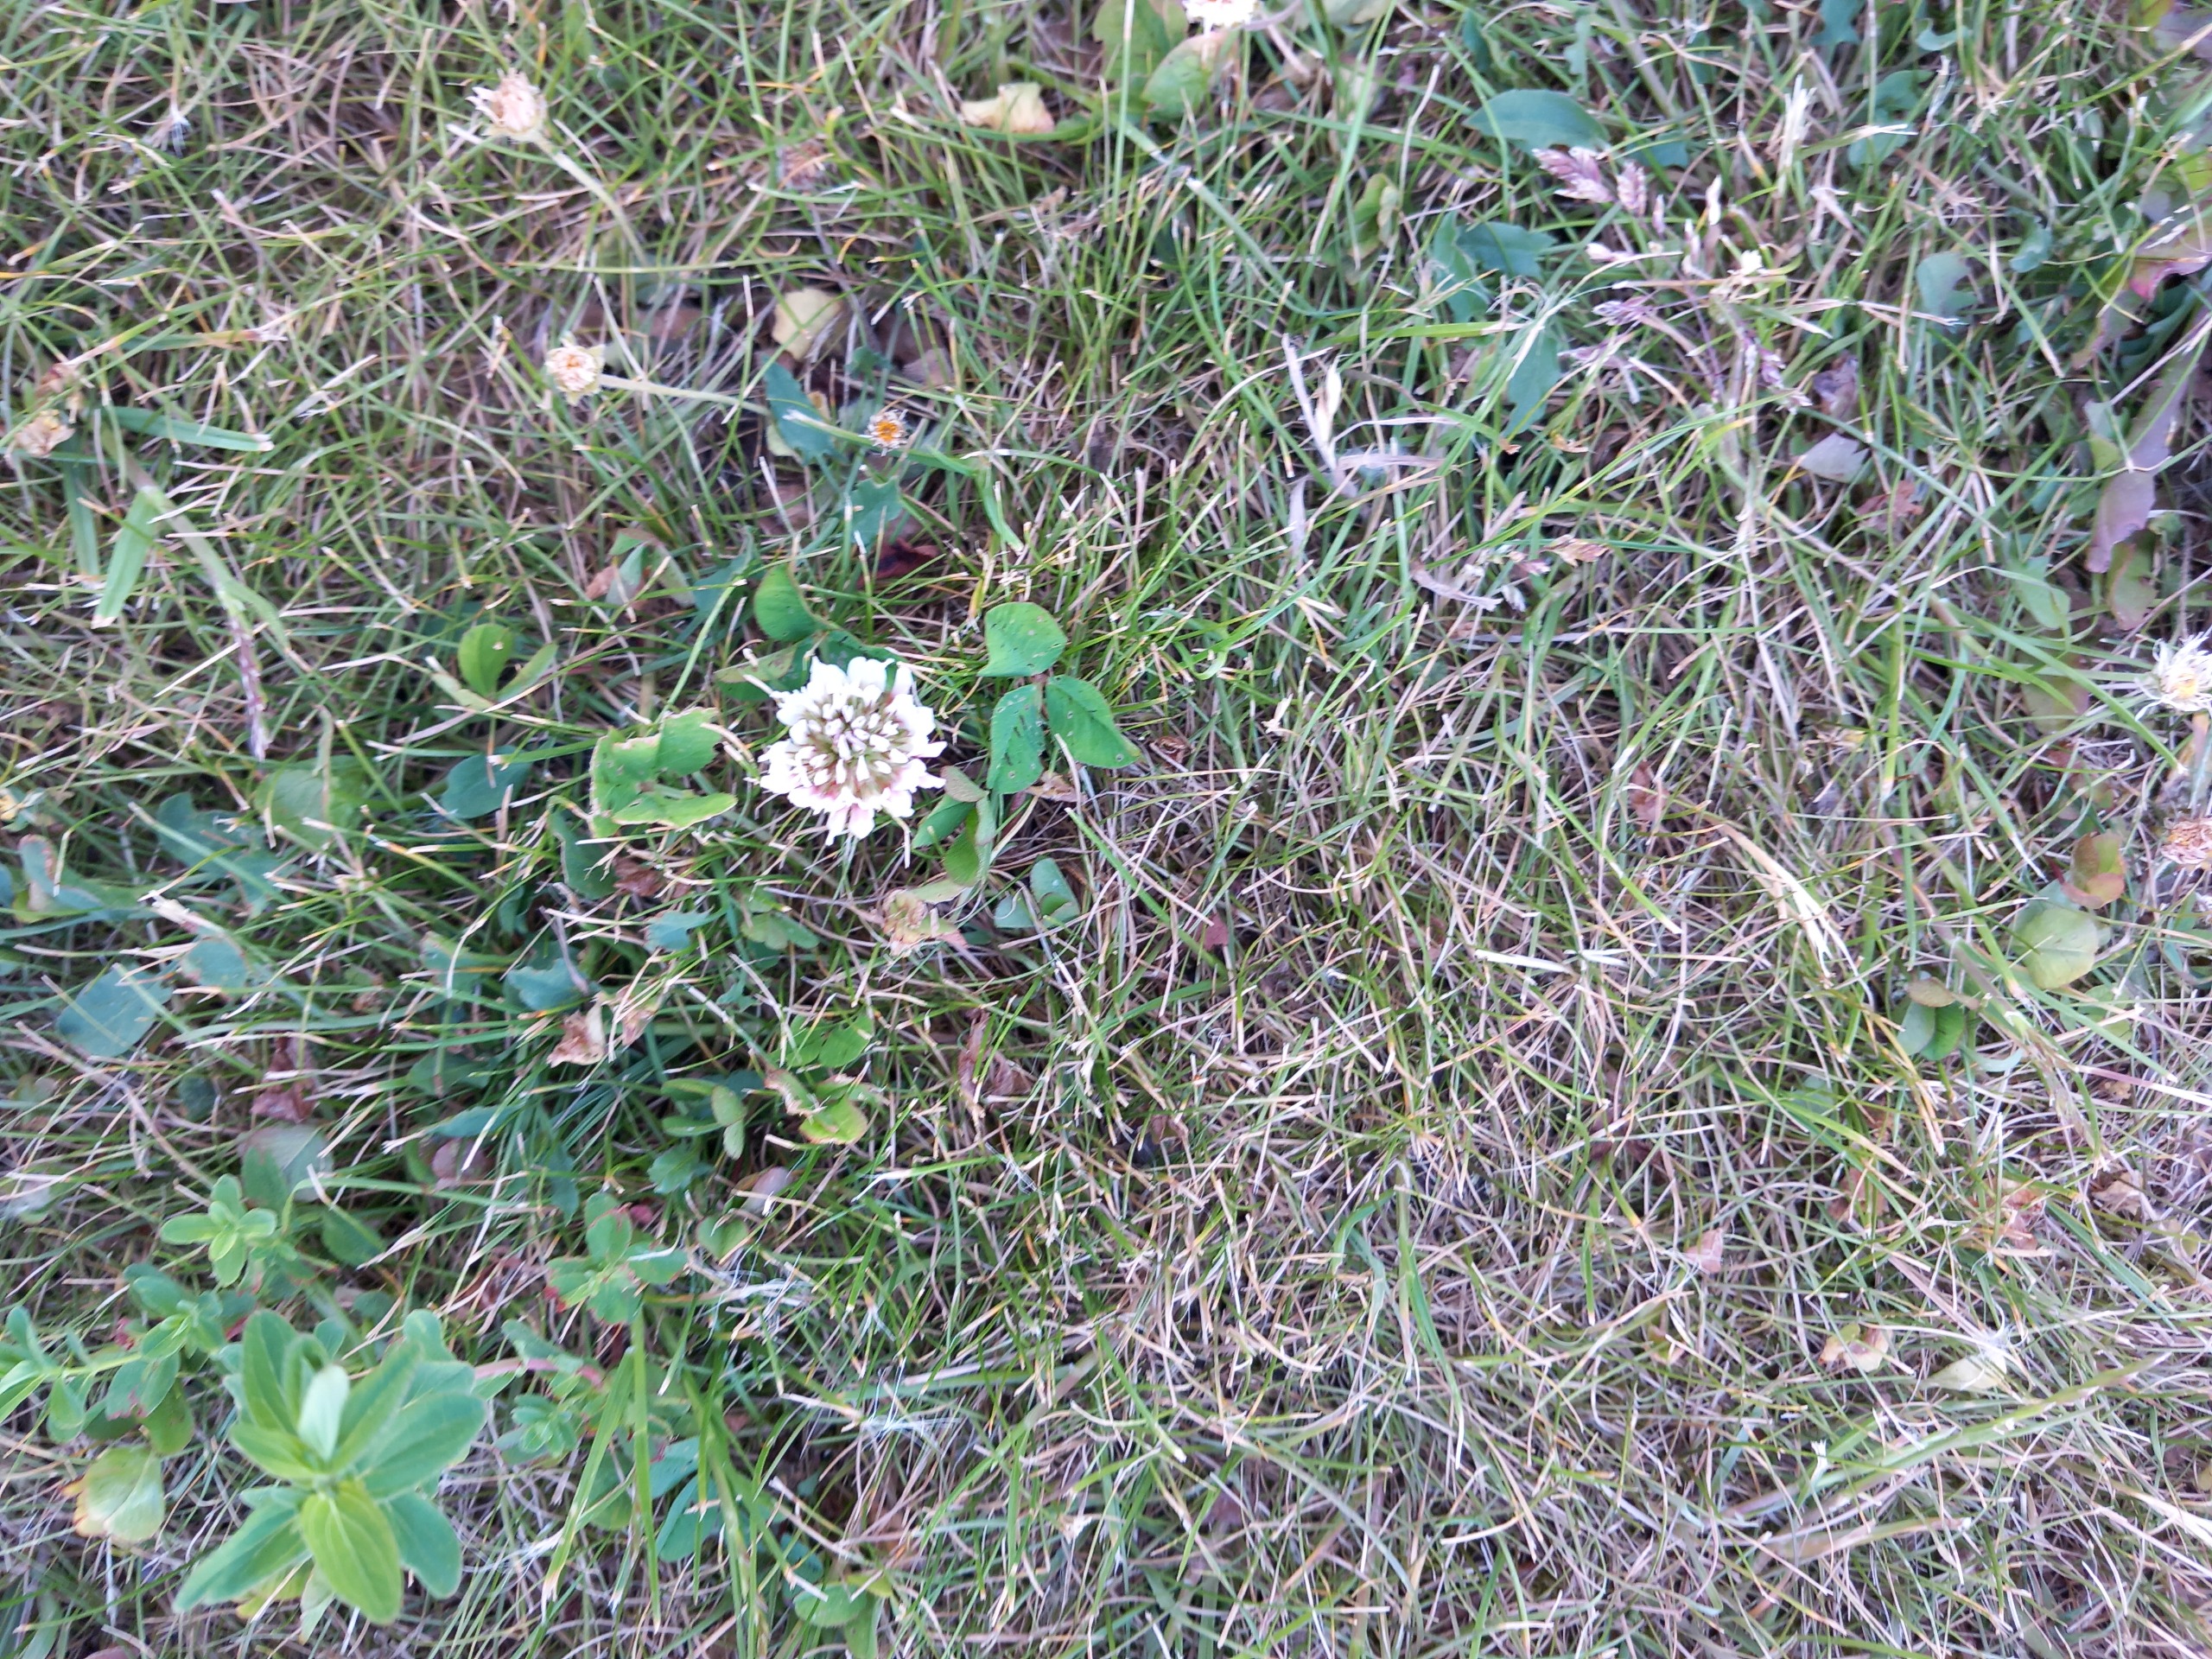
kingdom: Plantae
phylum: Tracheophyta
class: Magnoliopsida
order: Fabales
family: Fabaceae
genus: Trifolium
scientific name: Trifolium repens
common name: Hvid-kløver
